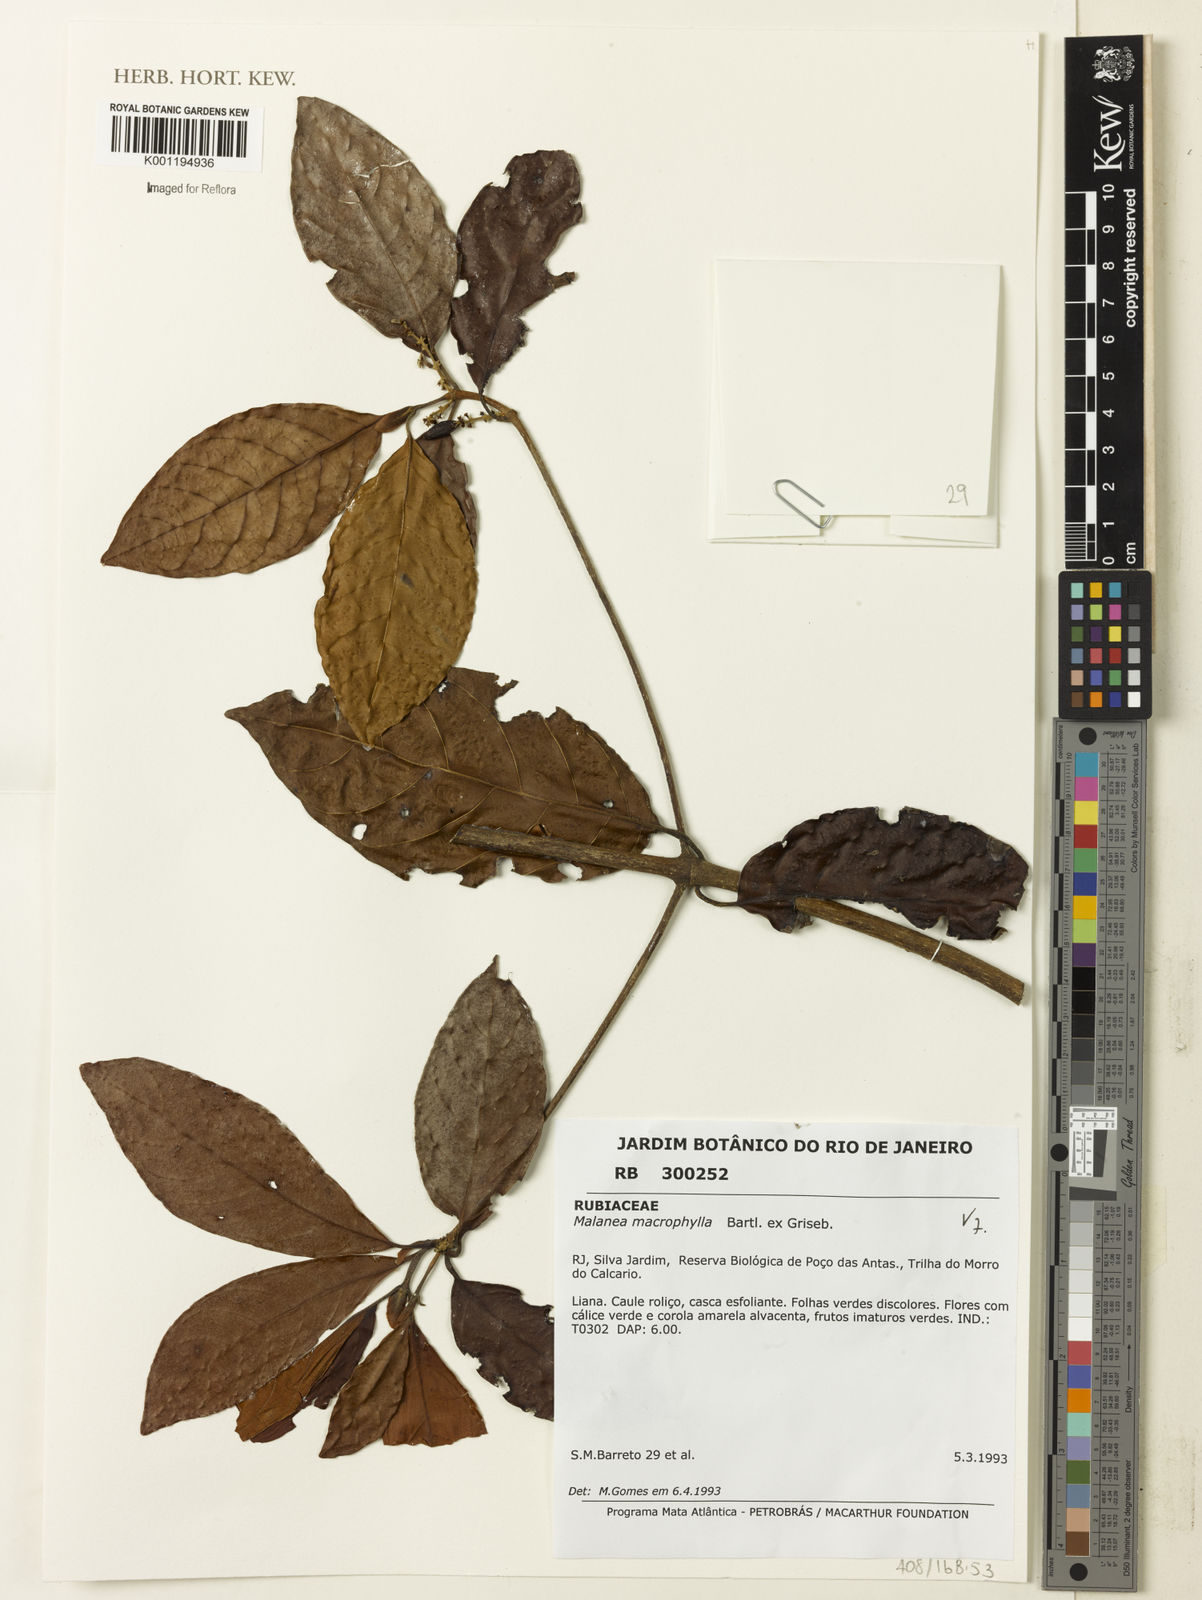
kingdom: Plantae
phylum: Tracheophyta
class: Magnoliopsida
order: Gentianales
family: Rubiaceae
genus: Malanea
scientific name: Malanea glabra
